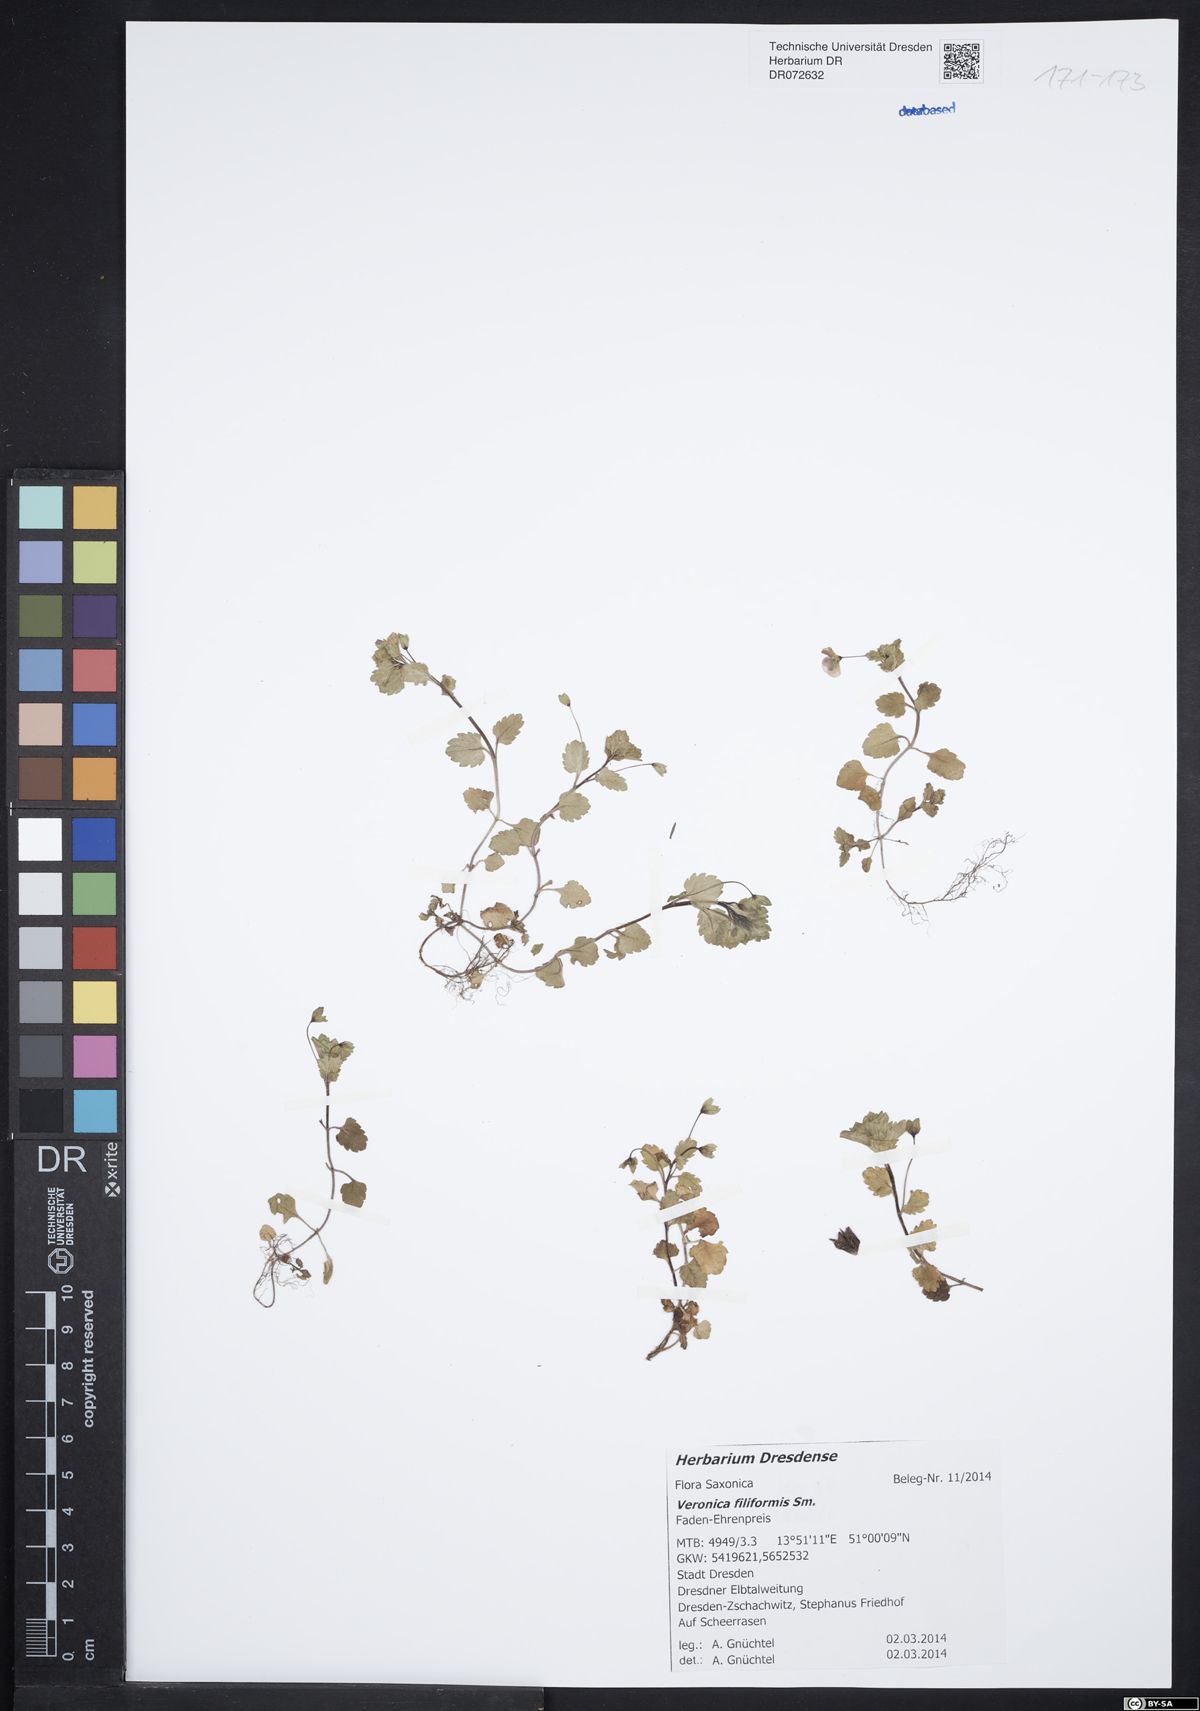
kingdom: Plantae
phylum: Tracheophyta
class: Magnoliopsida
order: Lamiales
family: Plantaginaceae
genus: Veronica
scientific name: Veronica filiformis
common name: Slender speedwell
